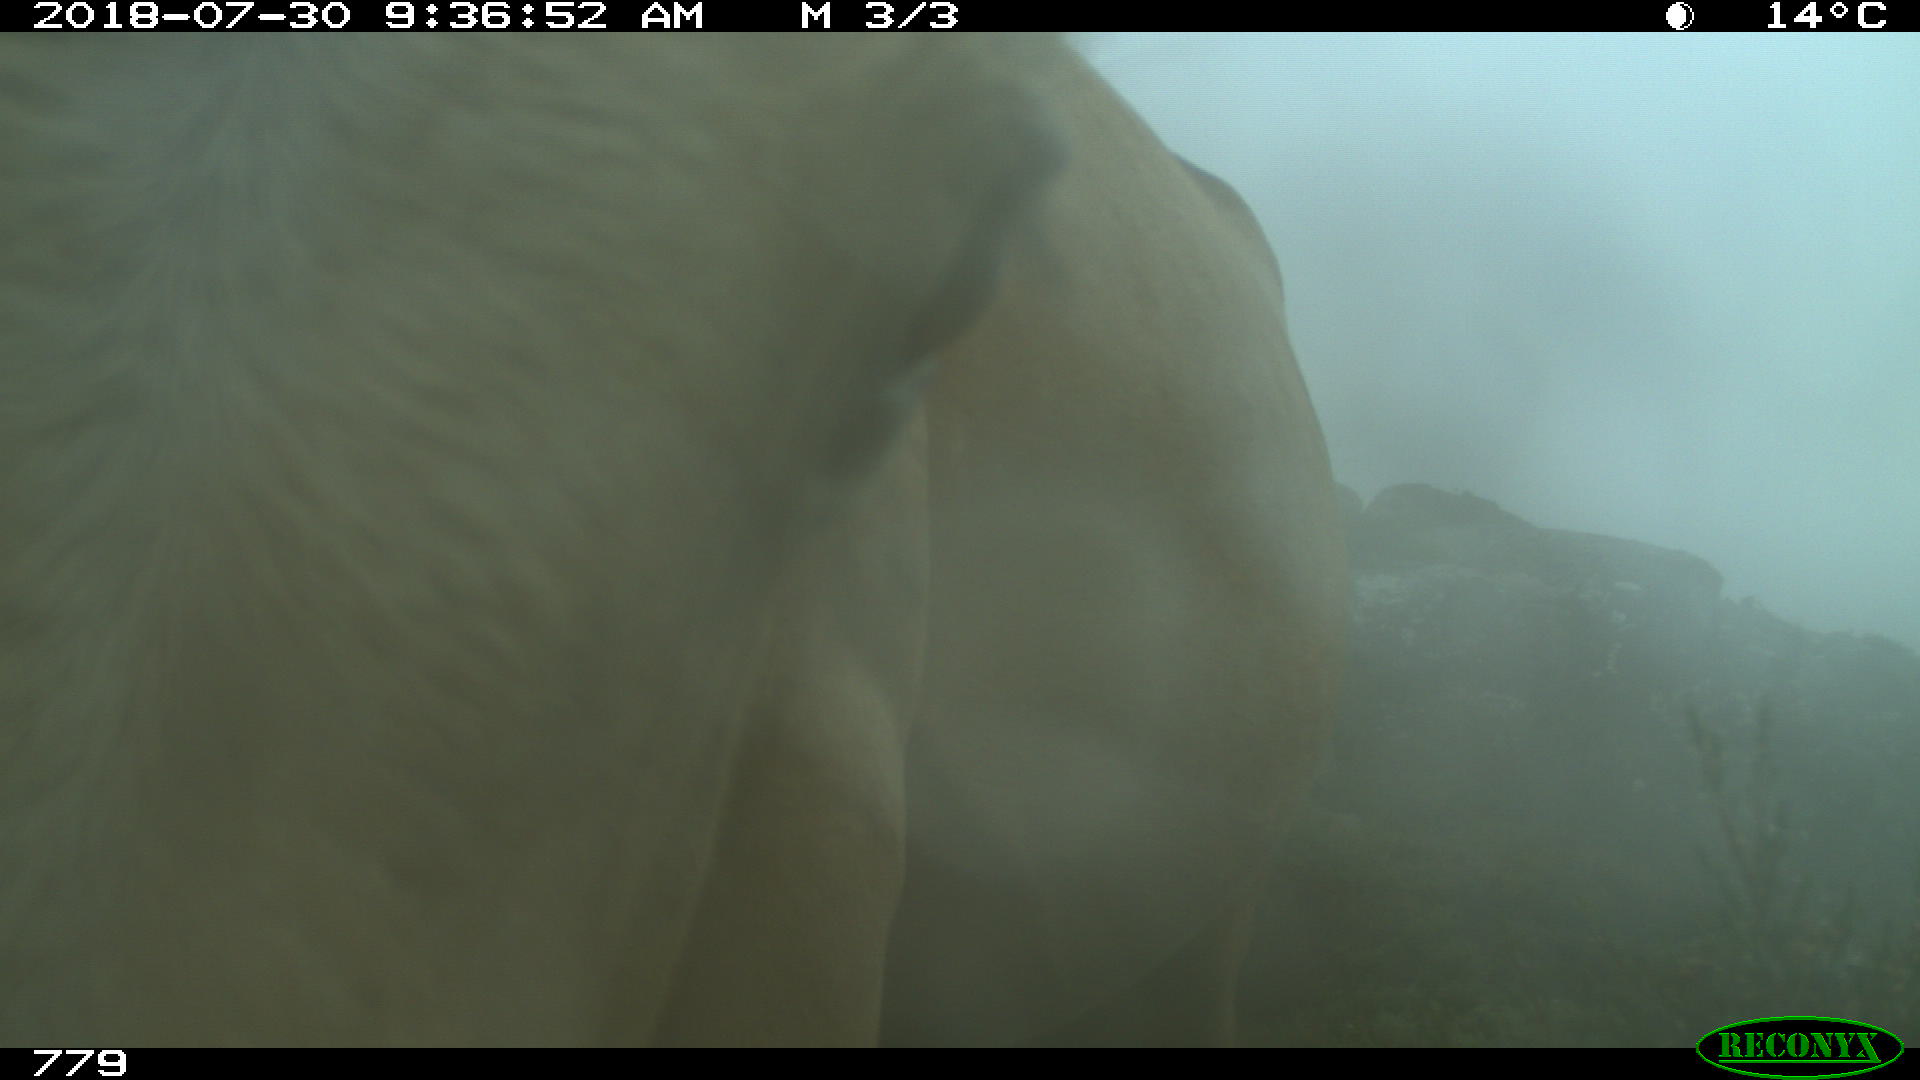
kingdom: Animalia
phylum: Chordata
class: Mammalia
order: Perissodactyla
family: Equidae
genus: Equus
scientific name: Equus caballus
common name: Horse
